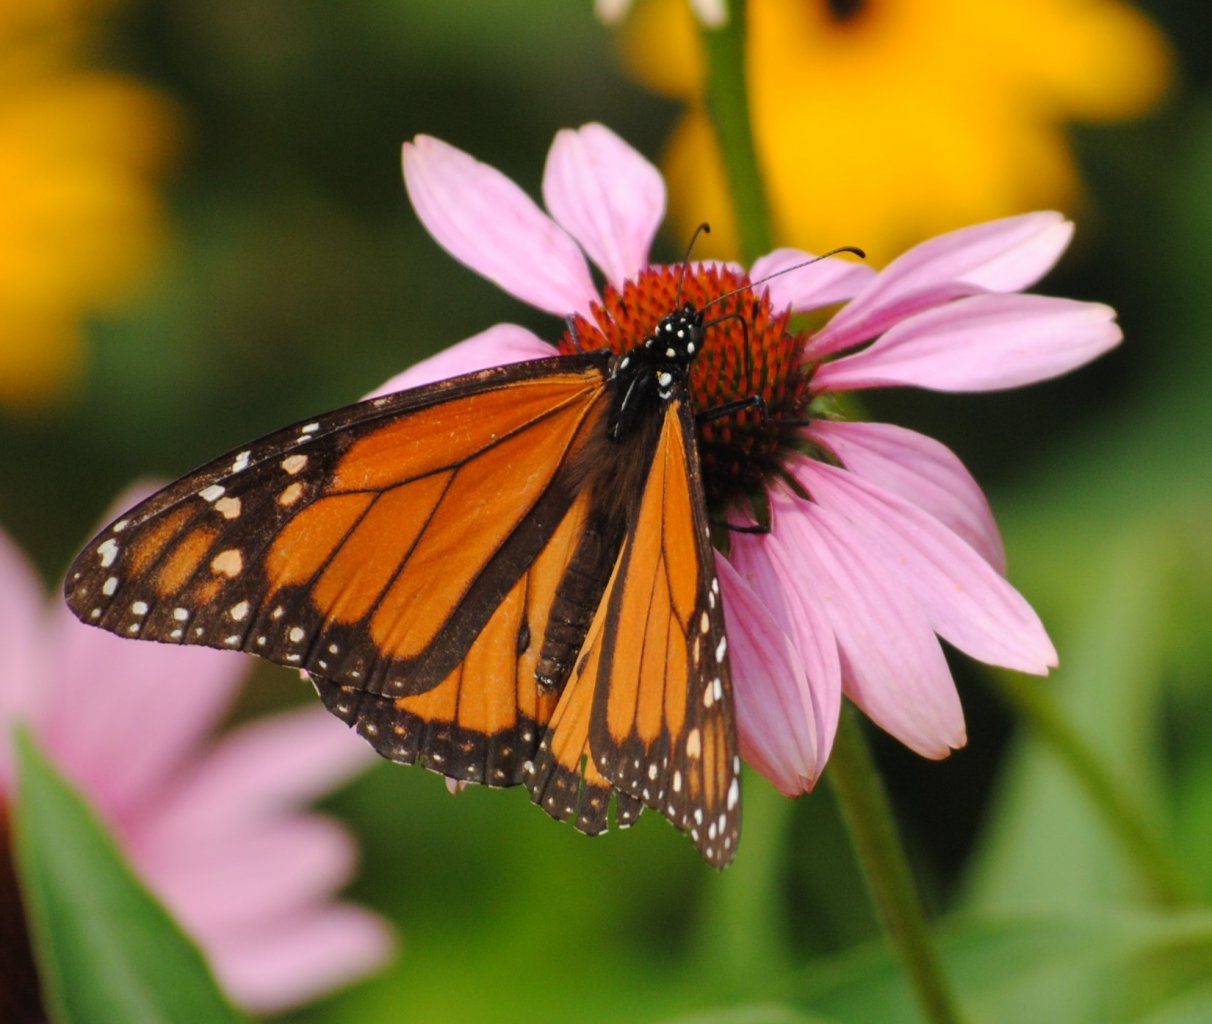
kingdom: Animalia
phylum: Arthropoda
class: Insecta
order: Lepidoptera
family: Nymphalidae
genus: Danaus
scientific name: Danaus plexippus
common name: Monarch
